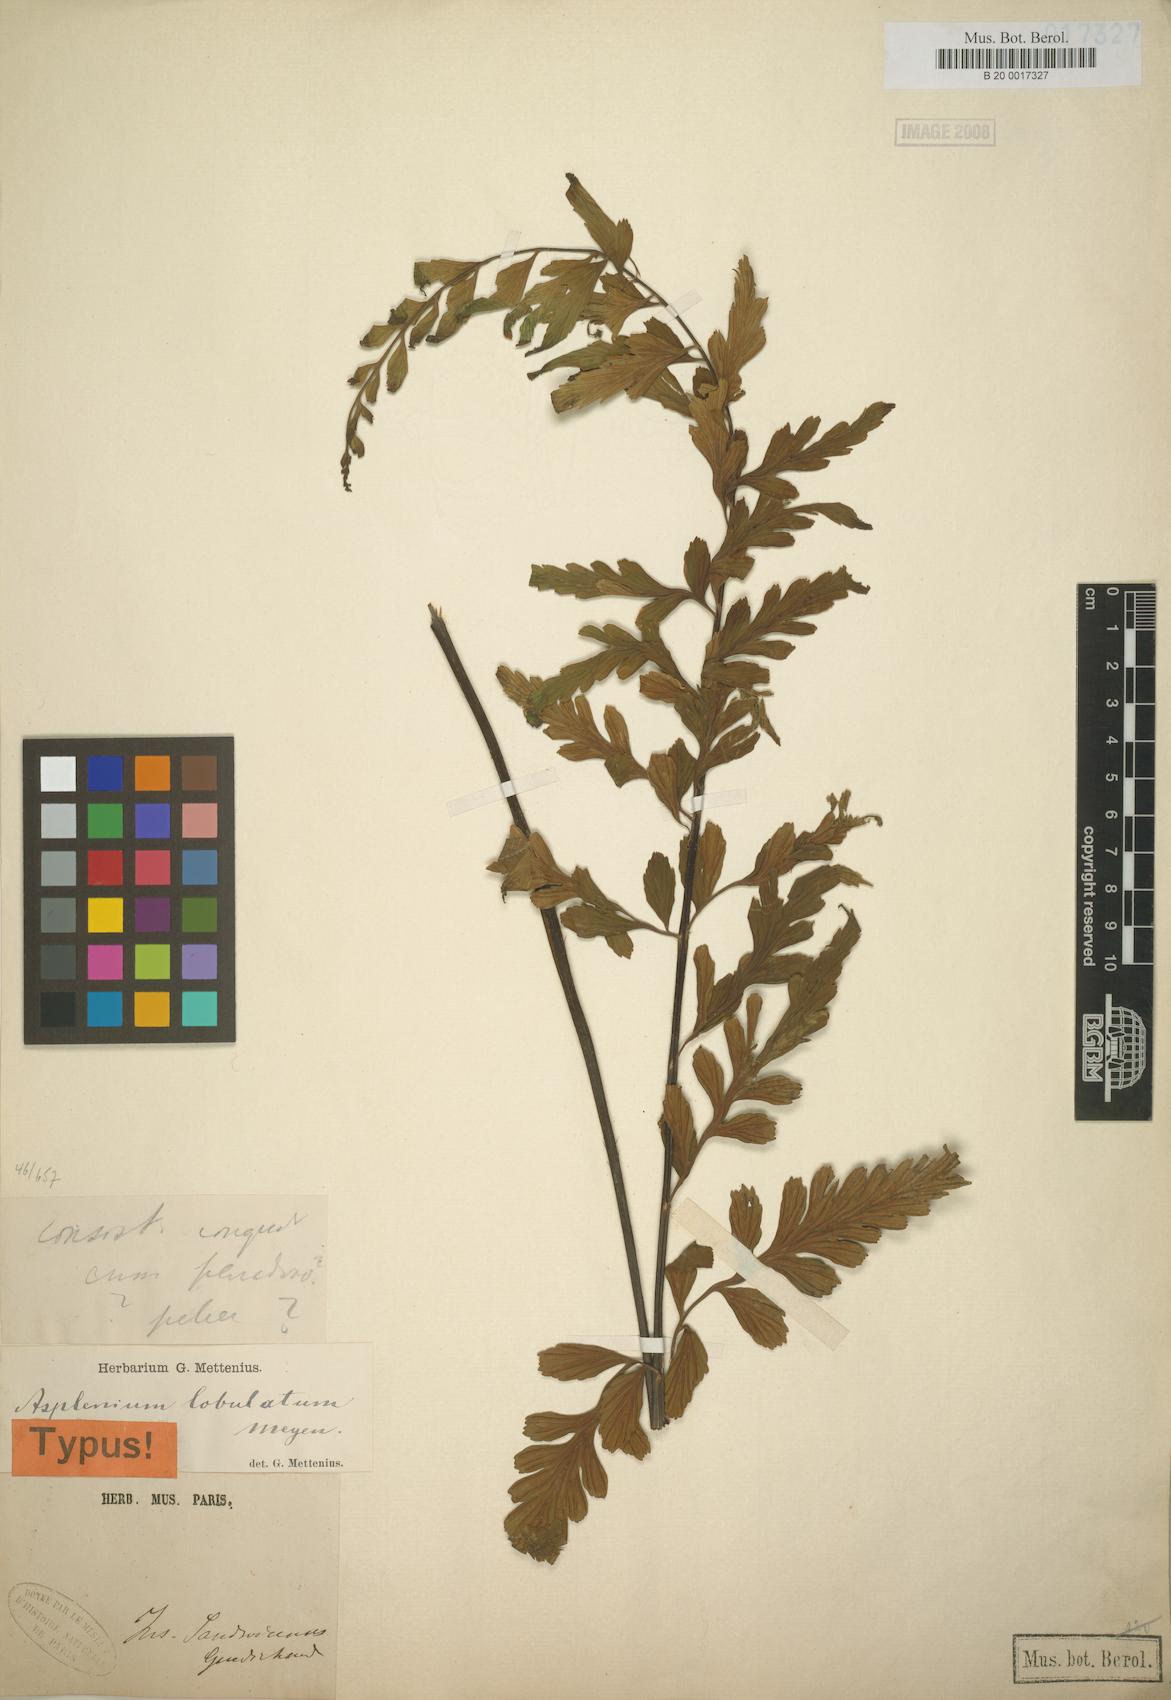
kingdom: Plantae
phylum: Tracheophyta
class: Polypodiopsida
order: Polypodiales
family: Aspleniaceae
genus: Asplenium
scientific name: Asplenium lobulatum
